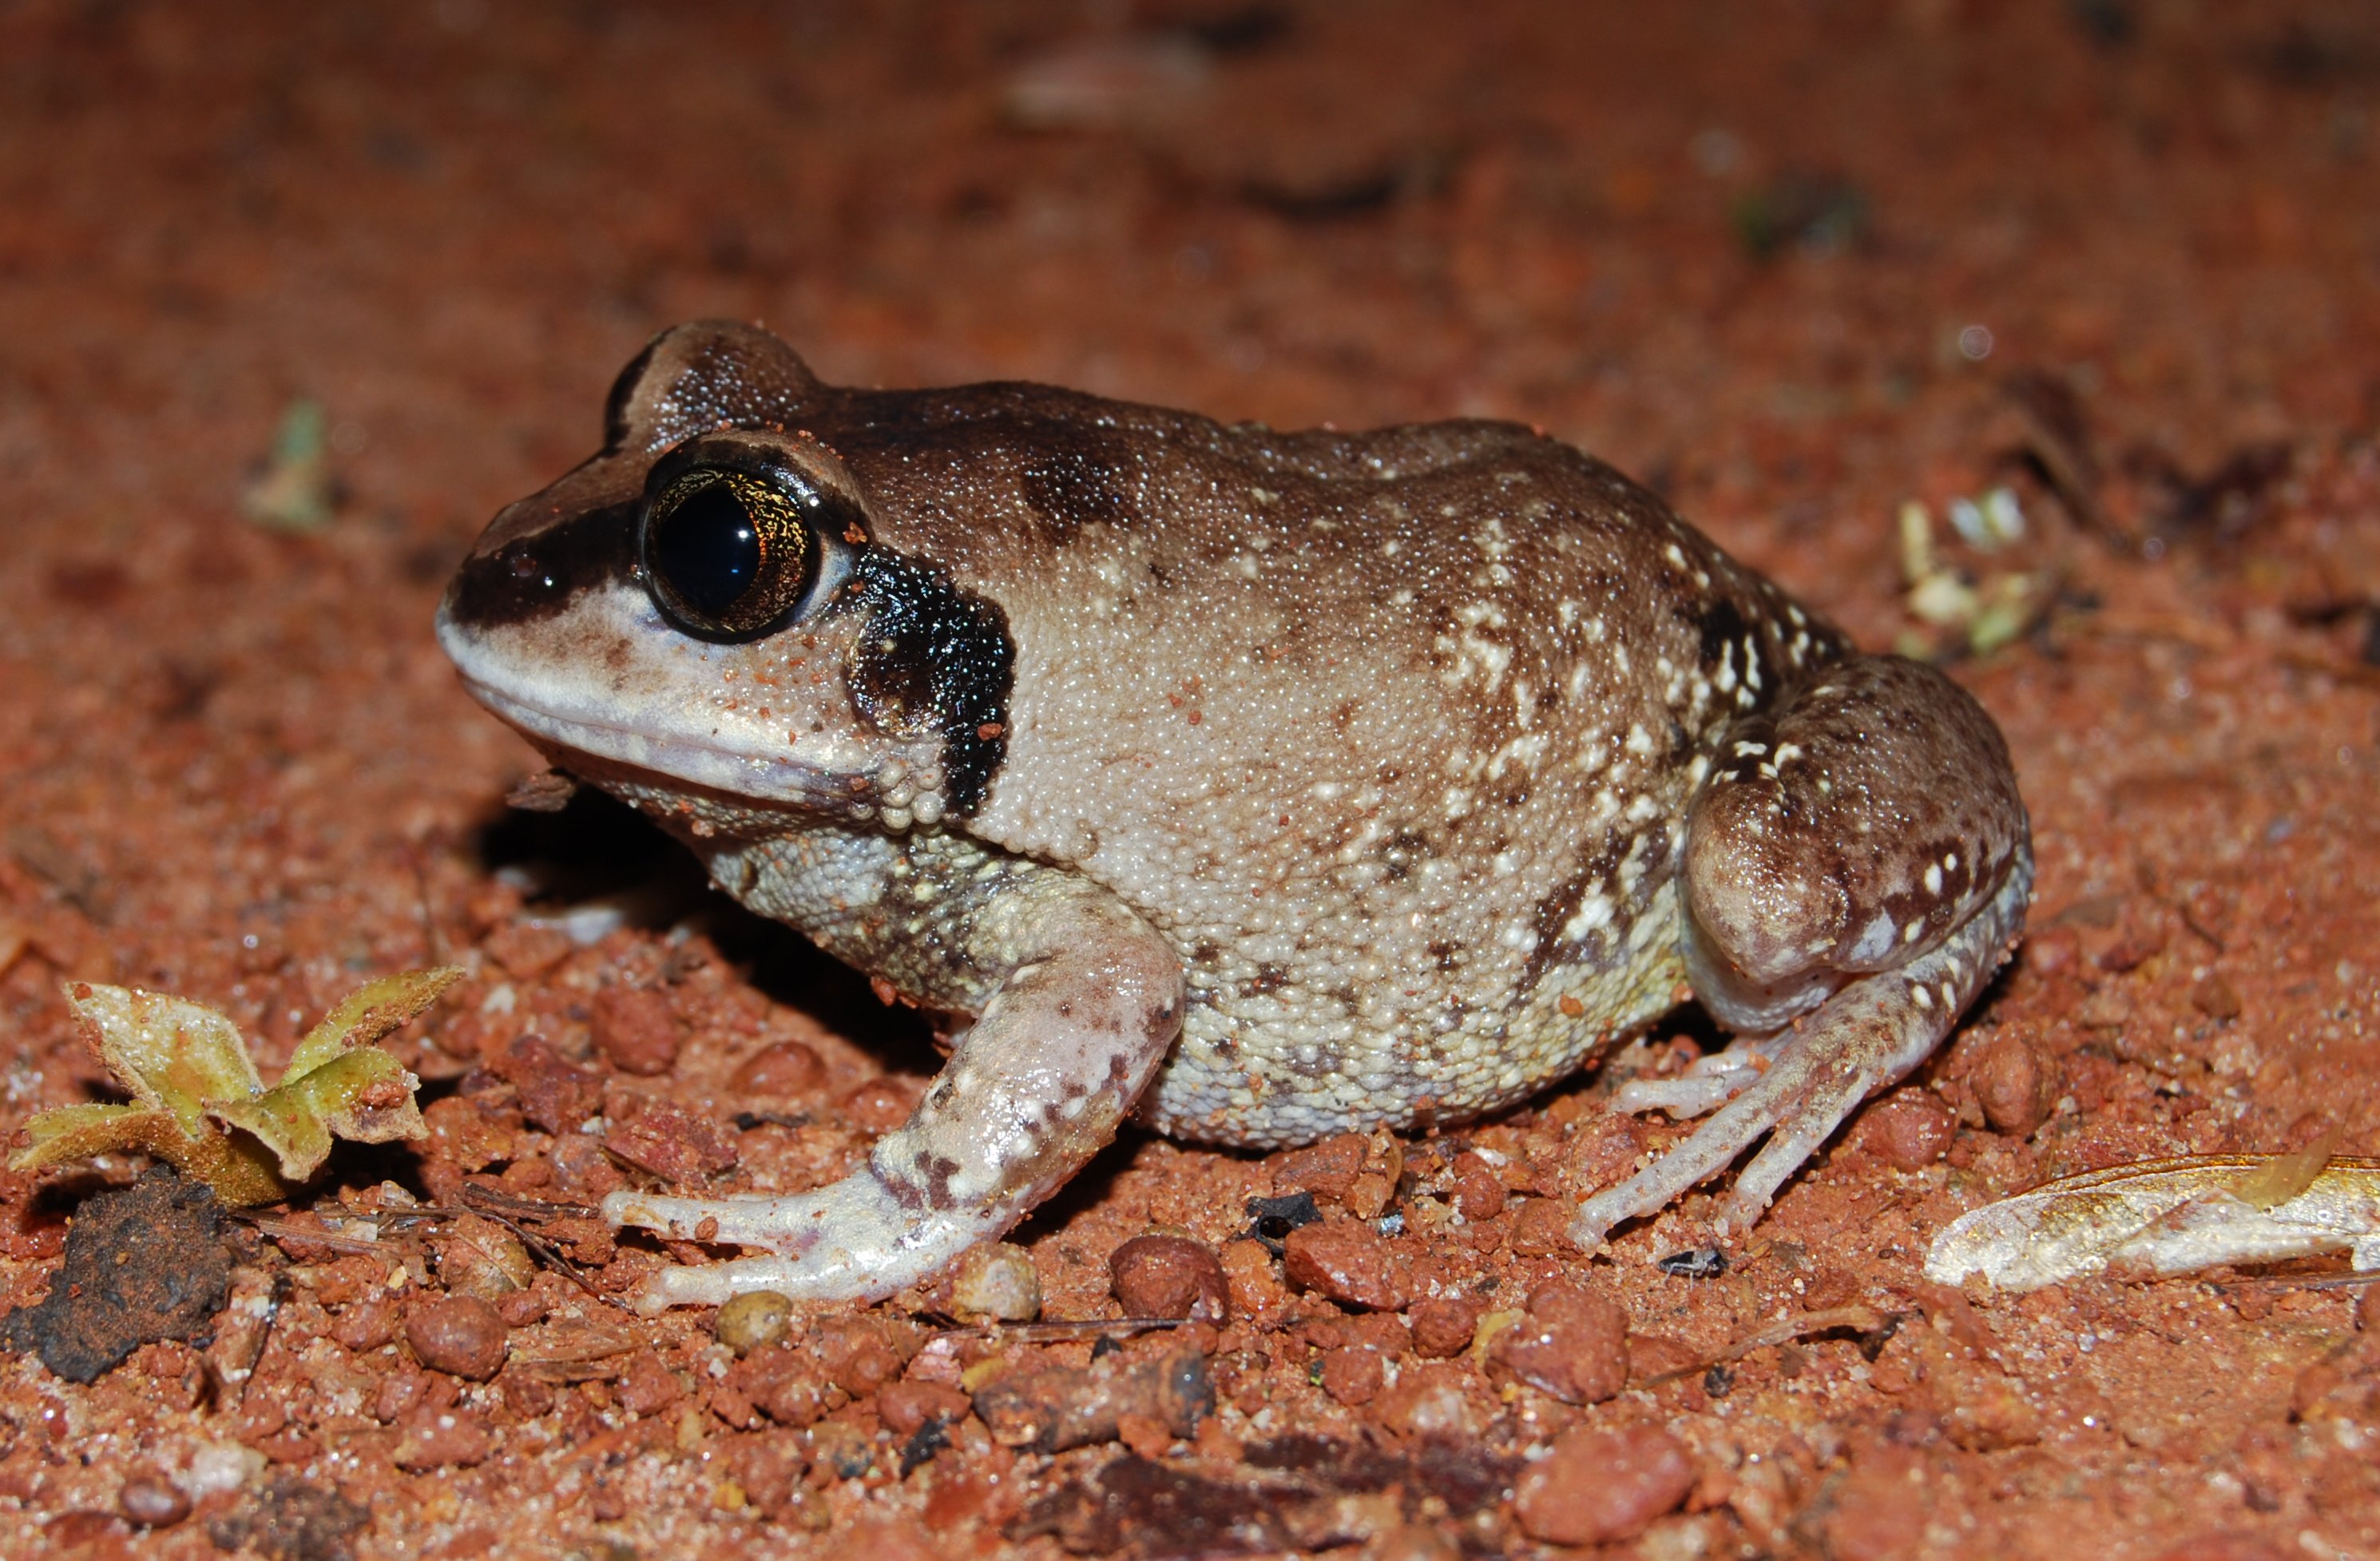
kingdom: Animalia
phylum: Chordata
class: Amphibia
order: Anura
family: Arthroleptidae
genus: Leptopelis
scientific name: Leptopelis bocagii
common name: Bocage's frog
